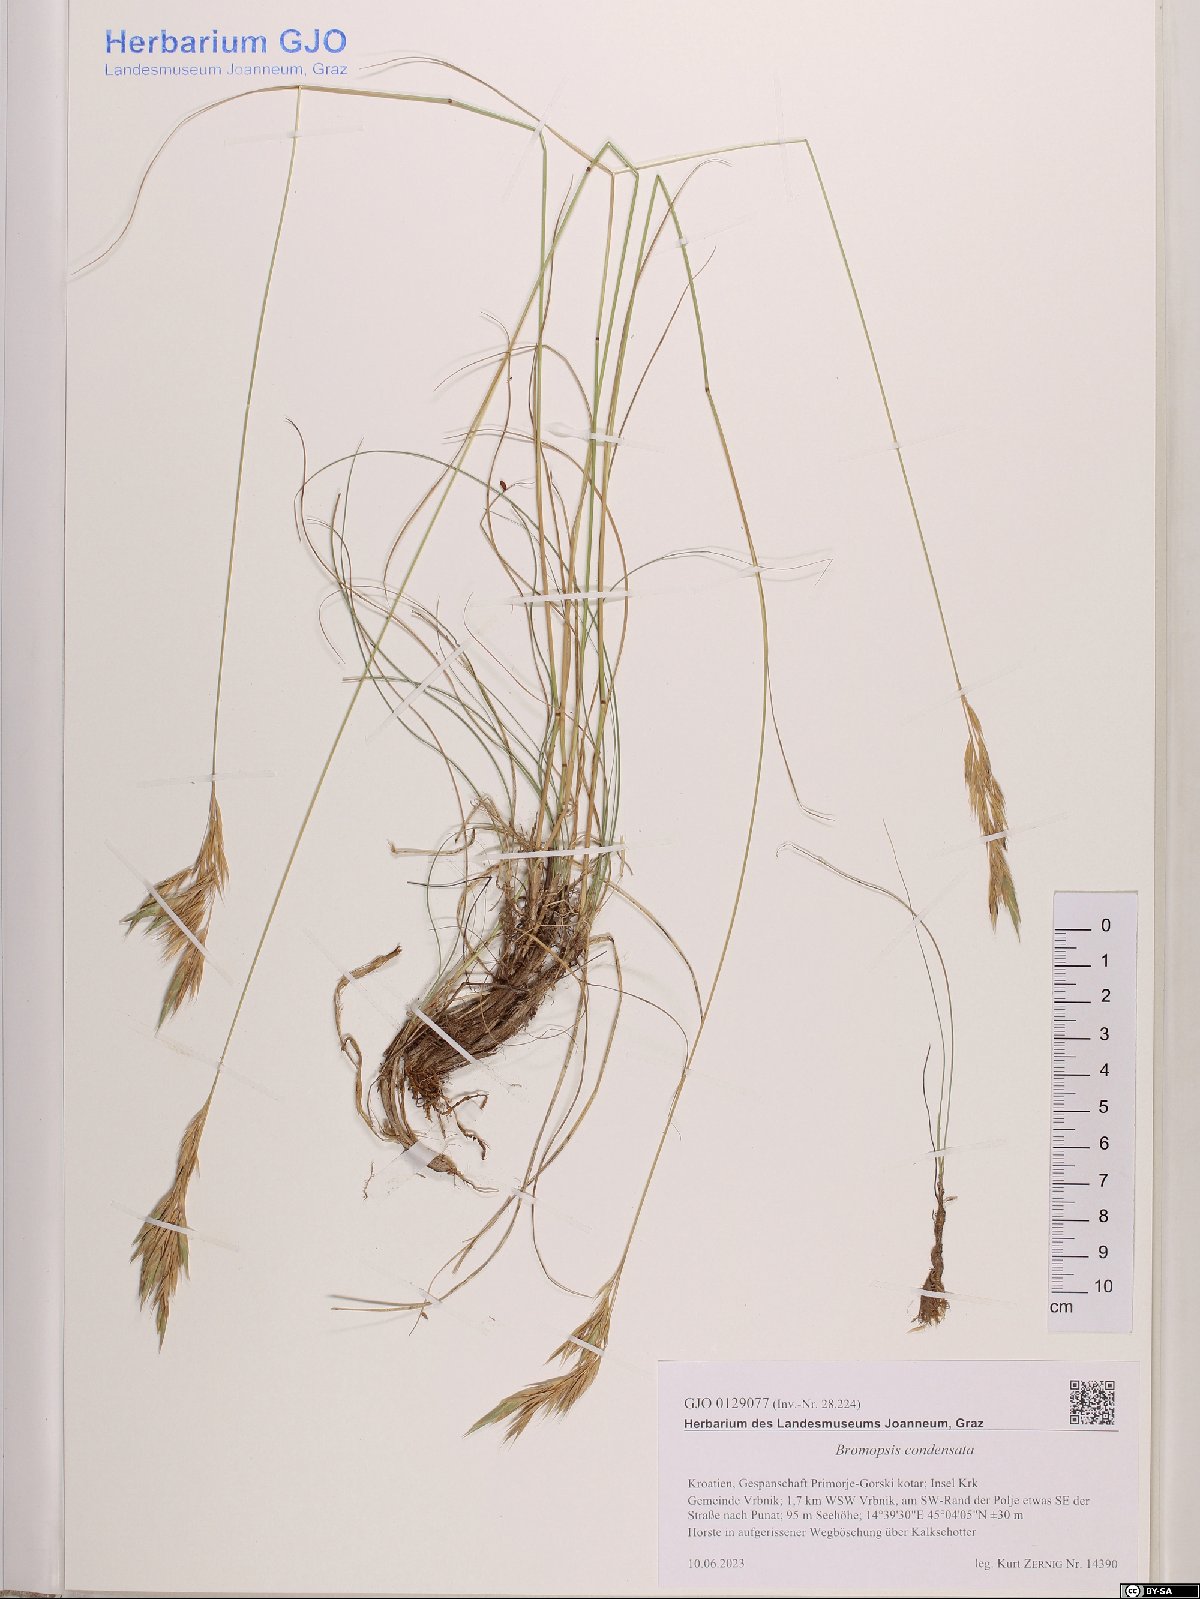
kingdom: Plantae
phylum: Tracheophyta
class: Liliopsida
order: Poales
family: Poaceae
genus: Bromus
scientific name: Bromus condensatus
